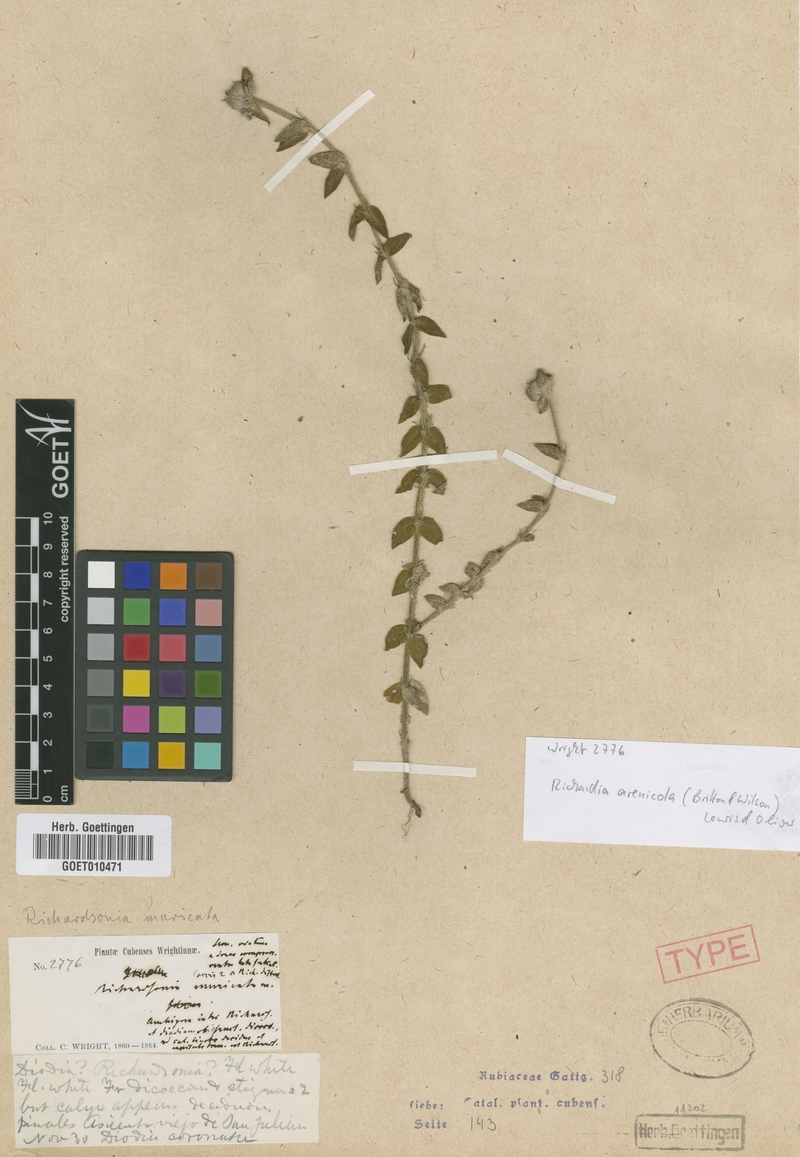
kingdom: Plantae
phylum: Tracheophyta
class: Magnoliopsida
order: Gentianales
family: Rubiaceae
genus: Richardia
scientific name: Richardia arenicola
